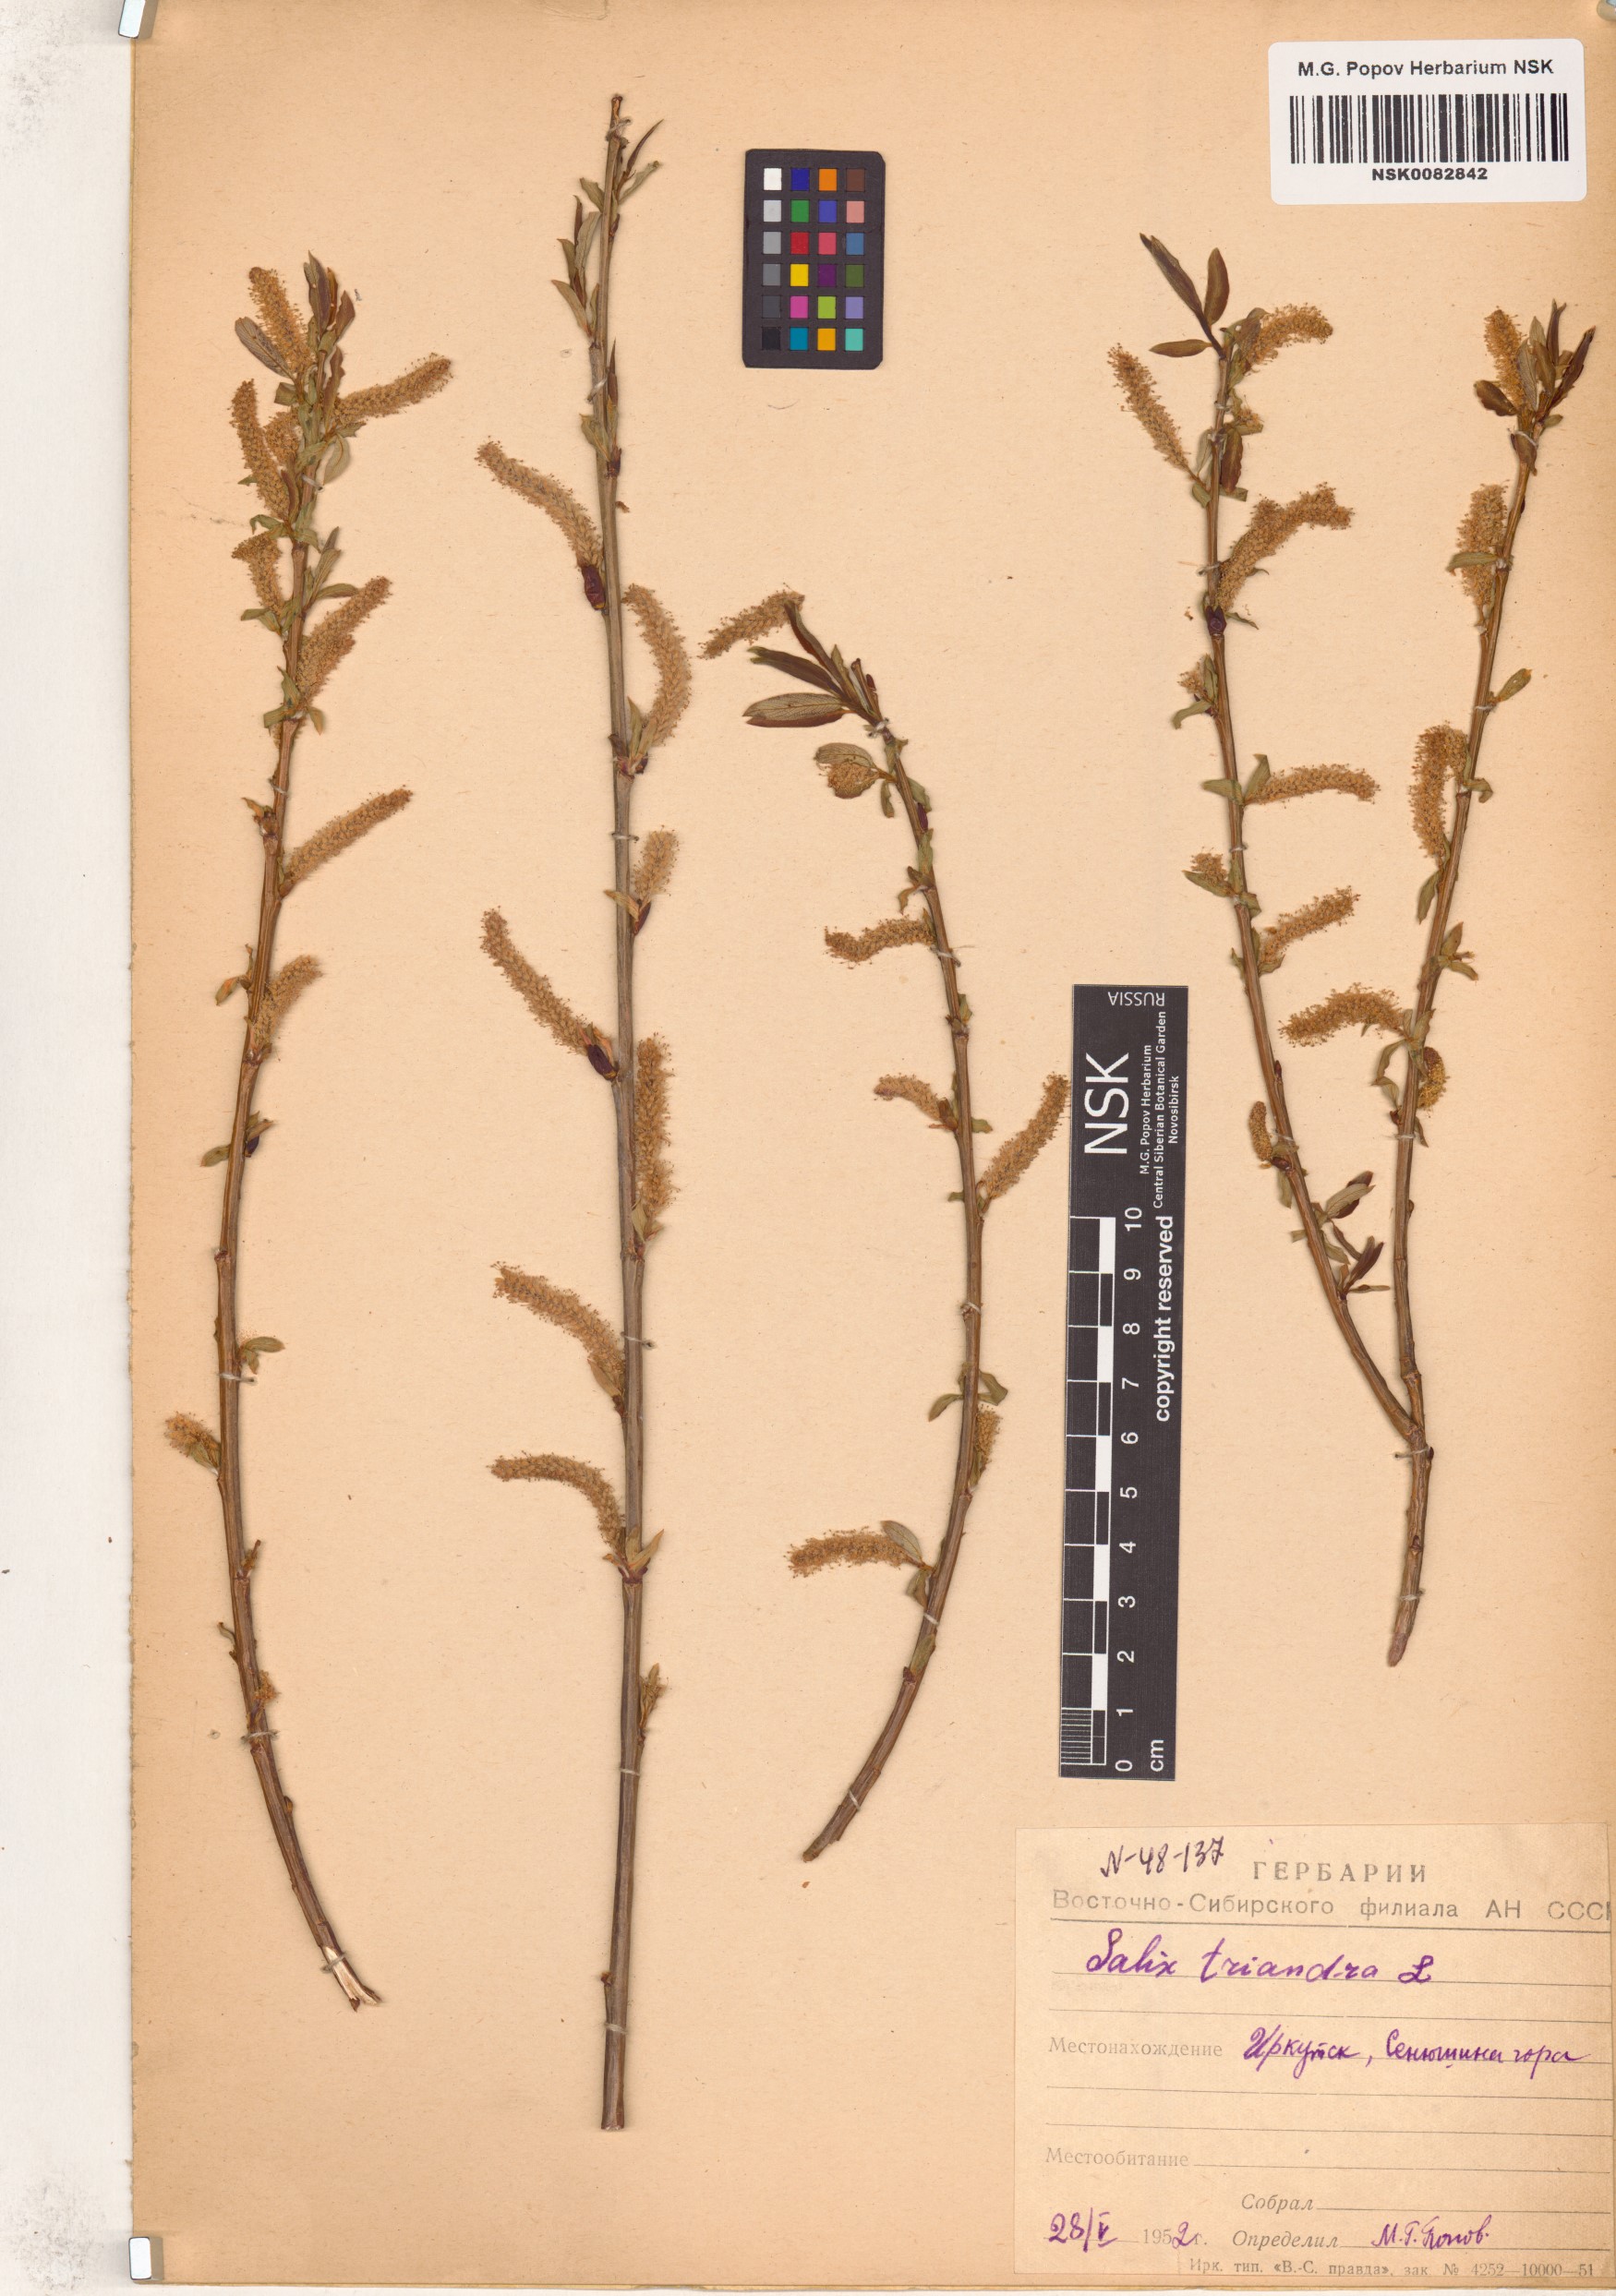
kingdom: Plantae
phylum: Tracheophyta
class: Magnoliopsida
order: Malpighiales
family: Salicaceae
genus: Salix
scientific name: Salix triandra
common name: Almond willow
